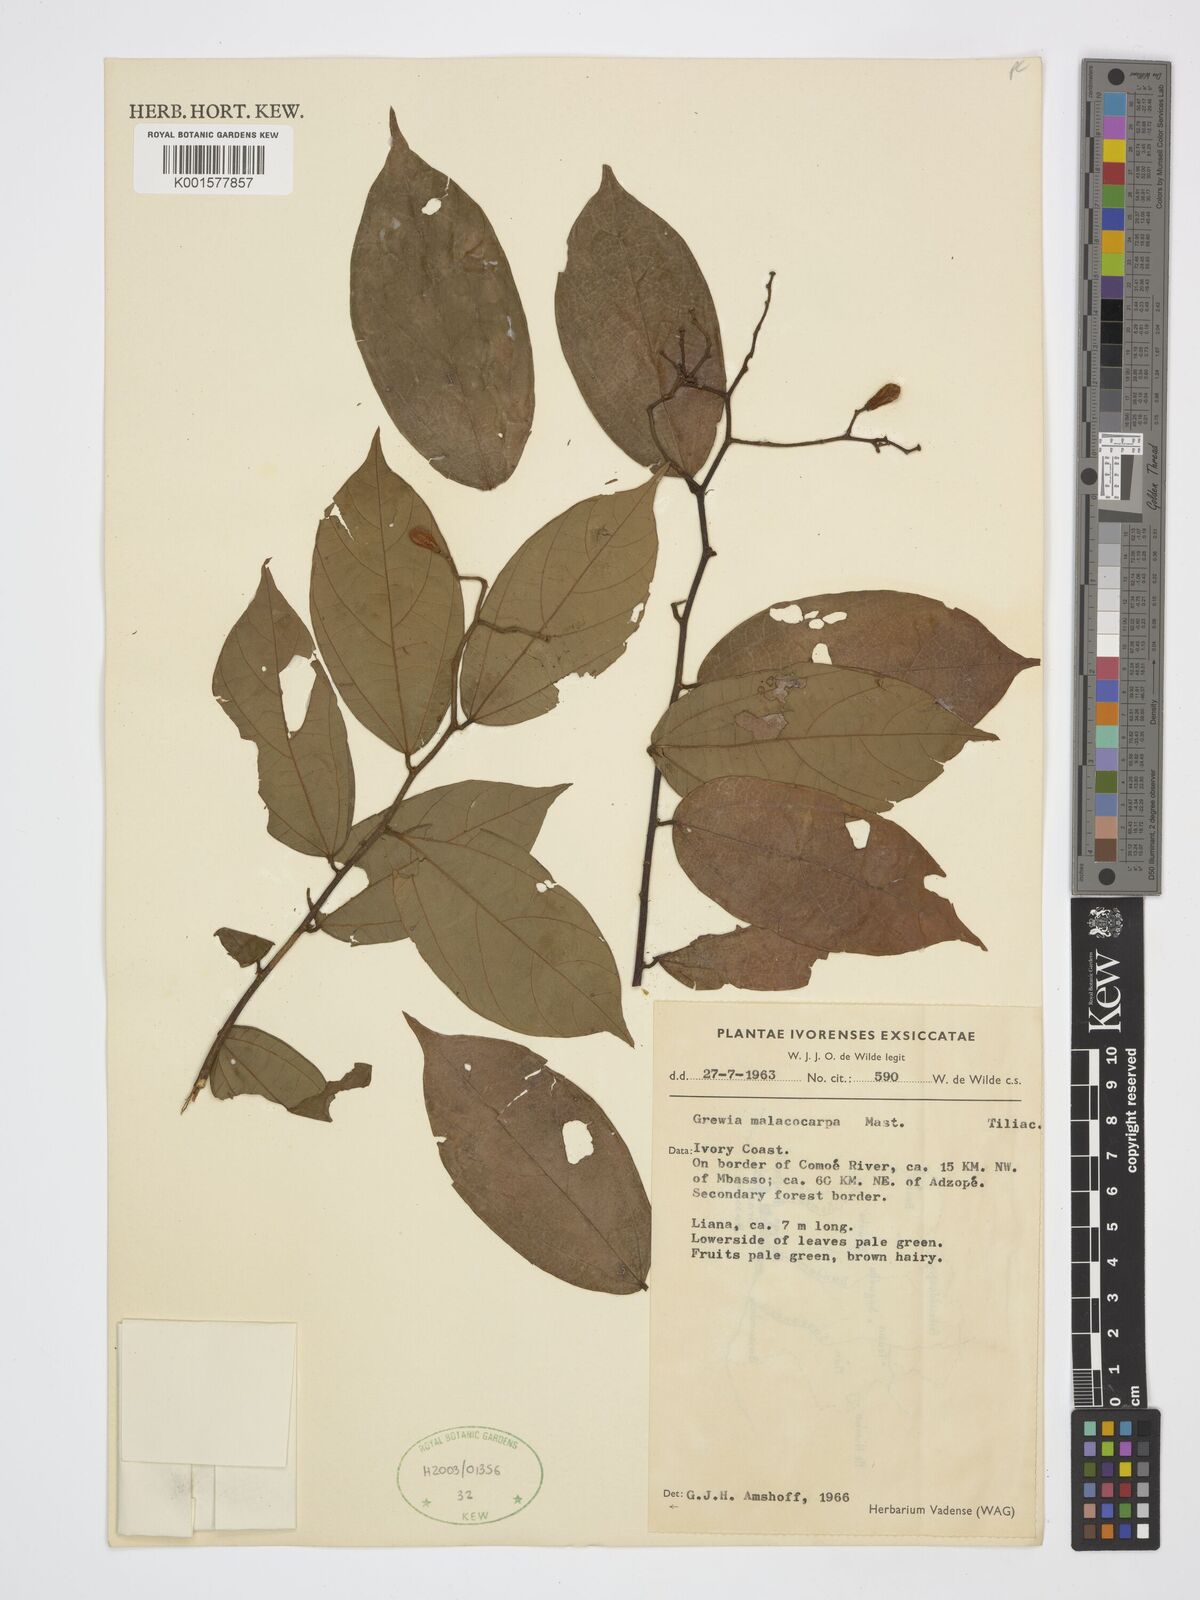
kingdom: Plantae
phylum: Tracheophyta
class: Magnoliopsida
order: Malvales
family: Malvaceae
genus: Microcos
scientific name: Microcos malacocarpa
